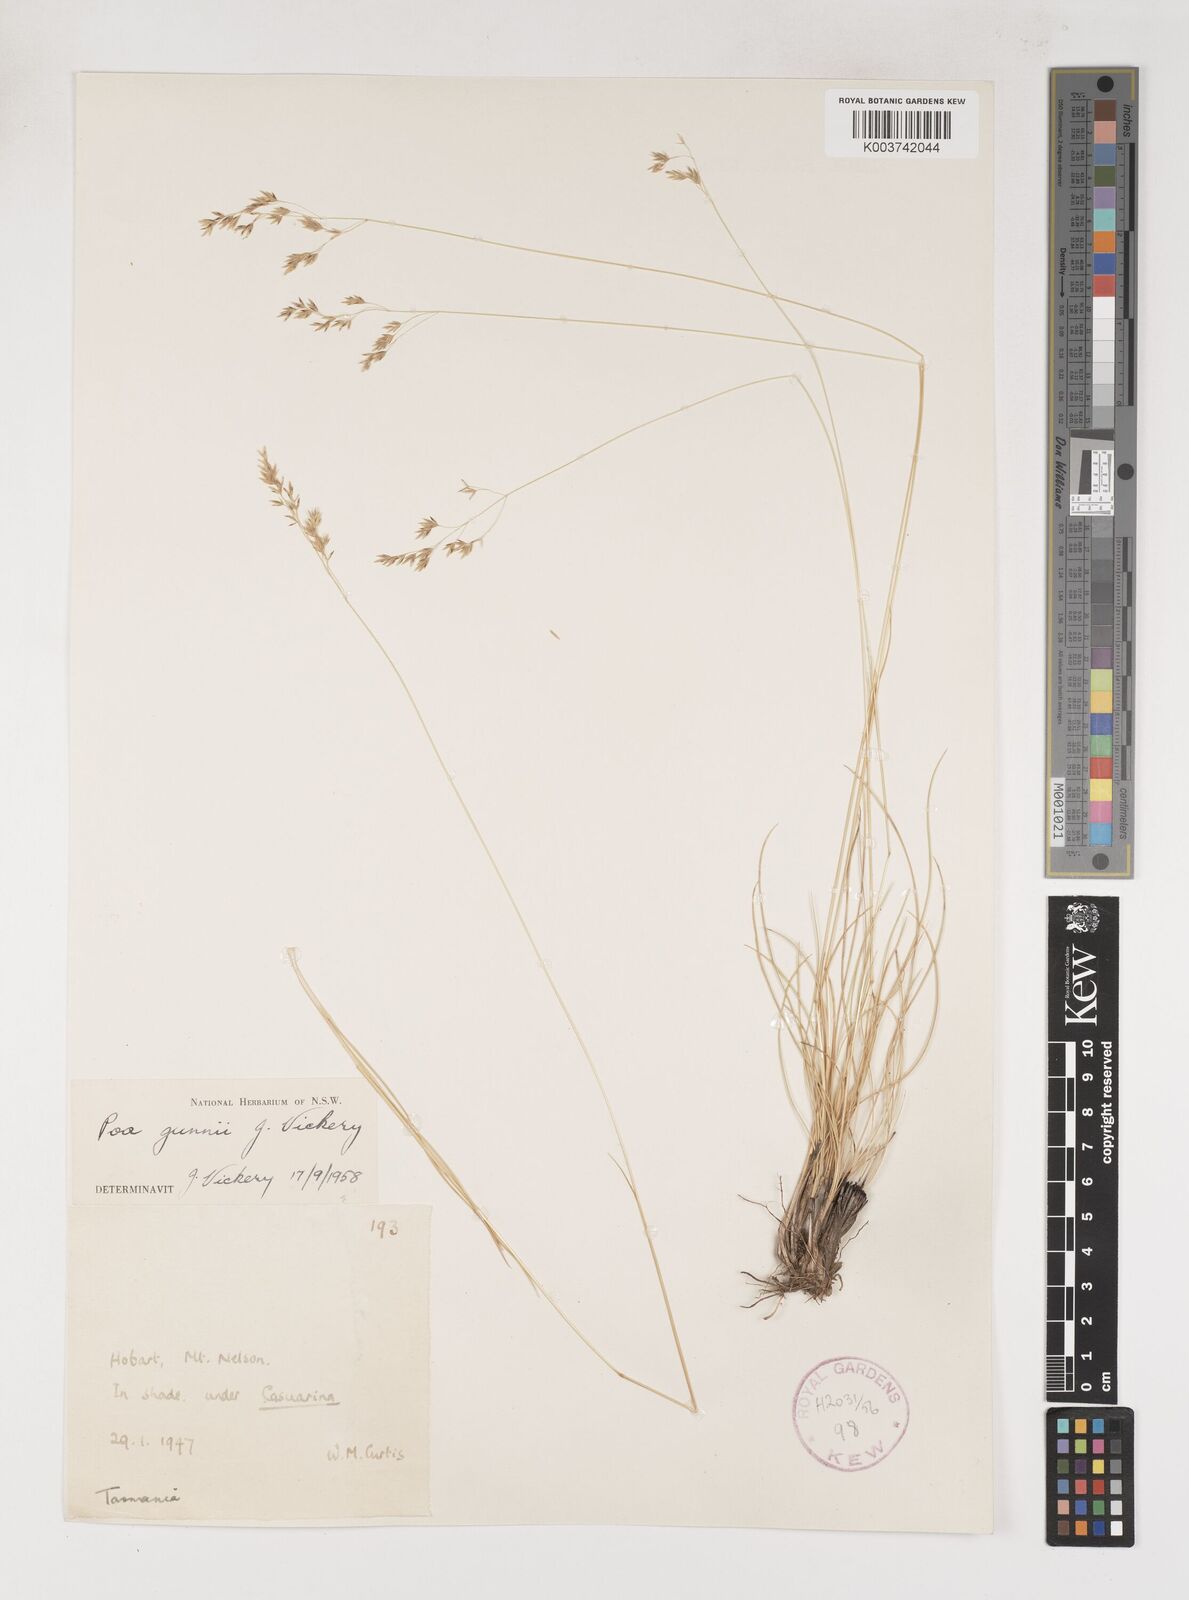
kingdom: Plantae
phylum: Tracheophyta
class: Liliopsida
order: Poales
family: Poaceae
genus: Poa
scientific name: Poa gunnii
